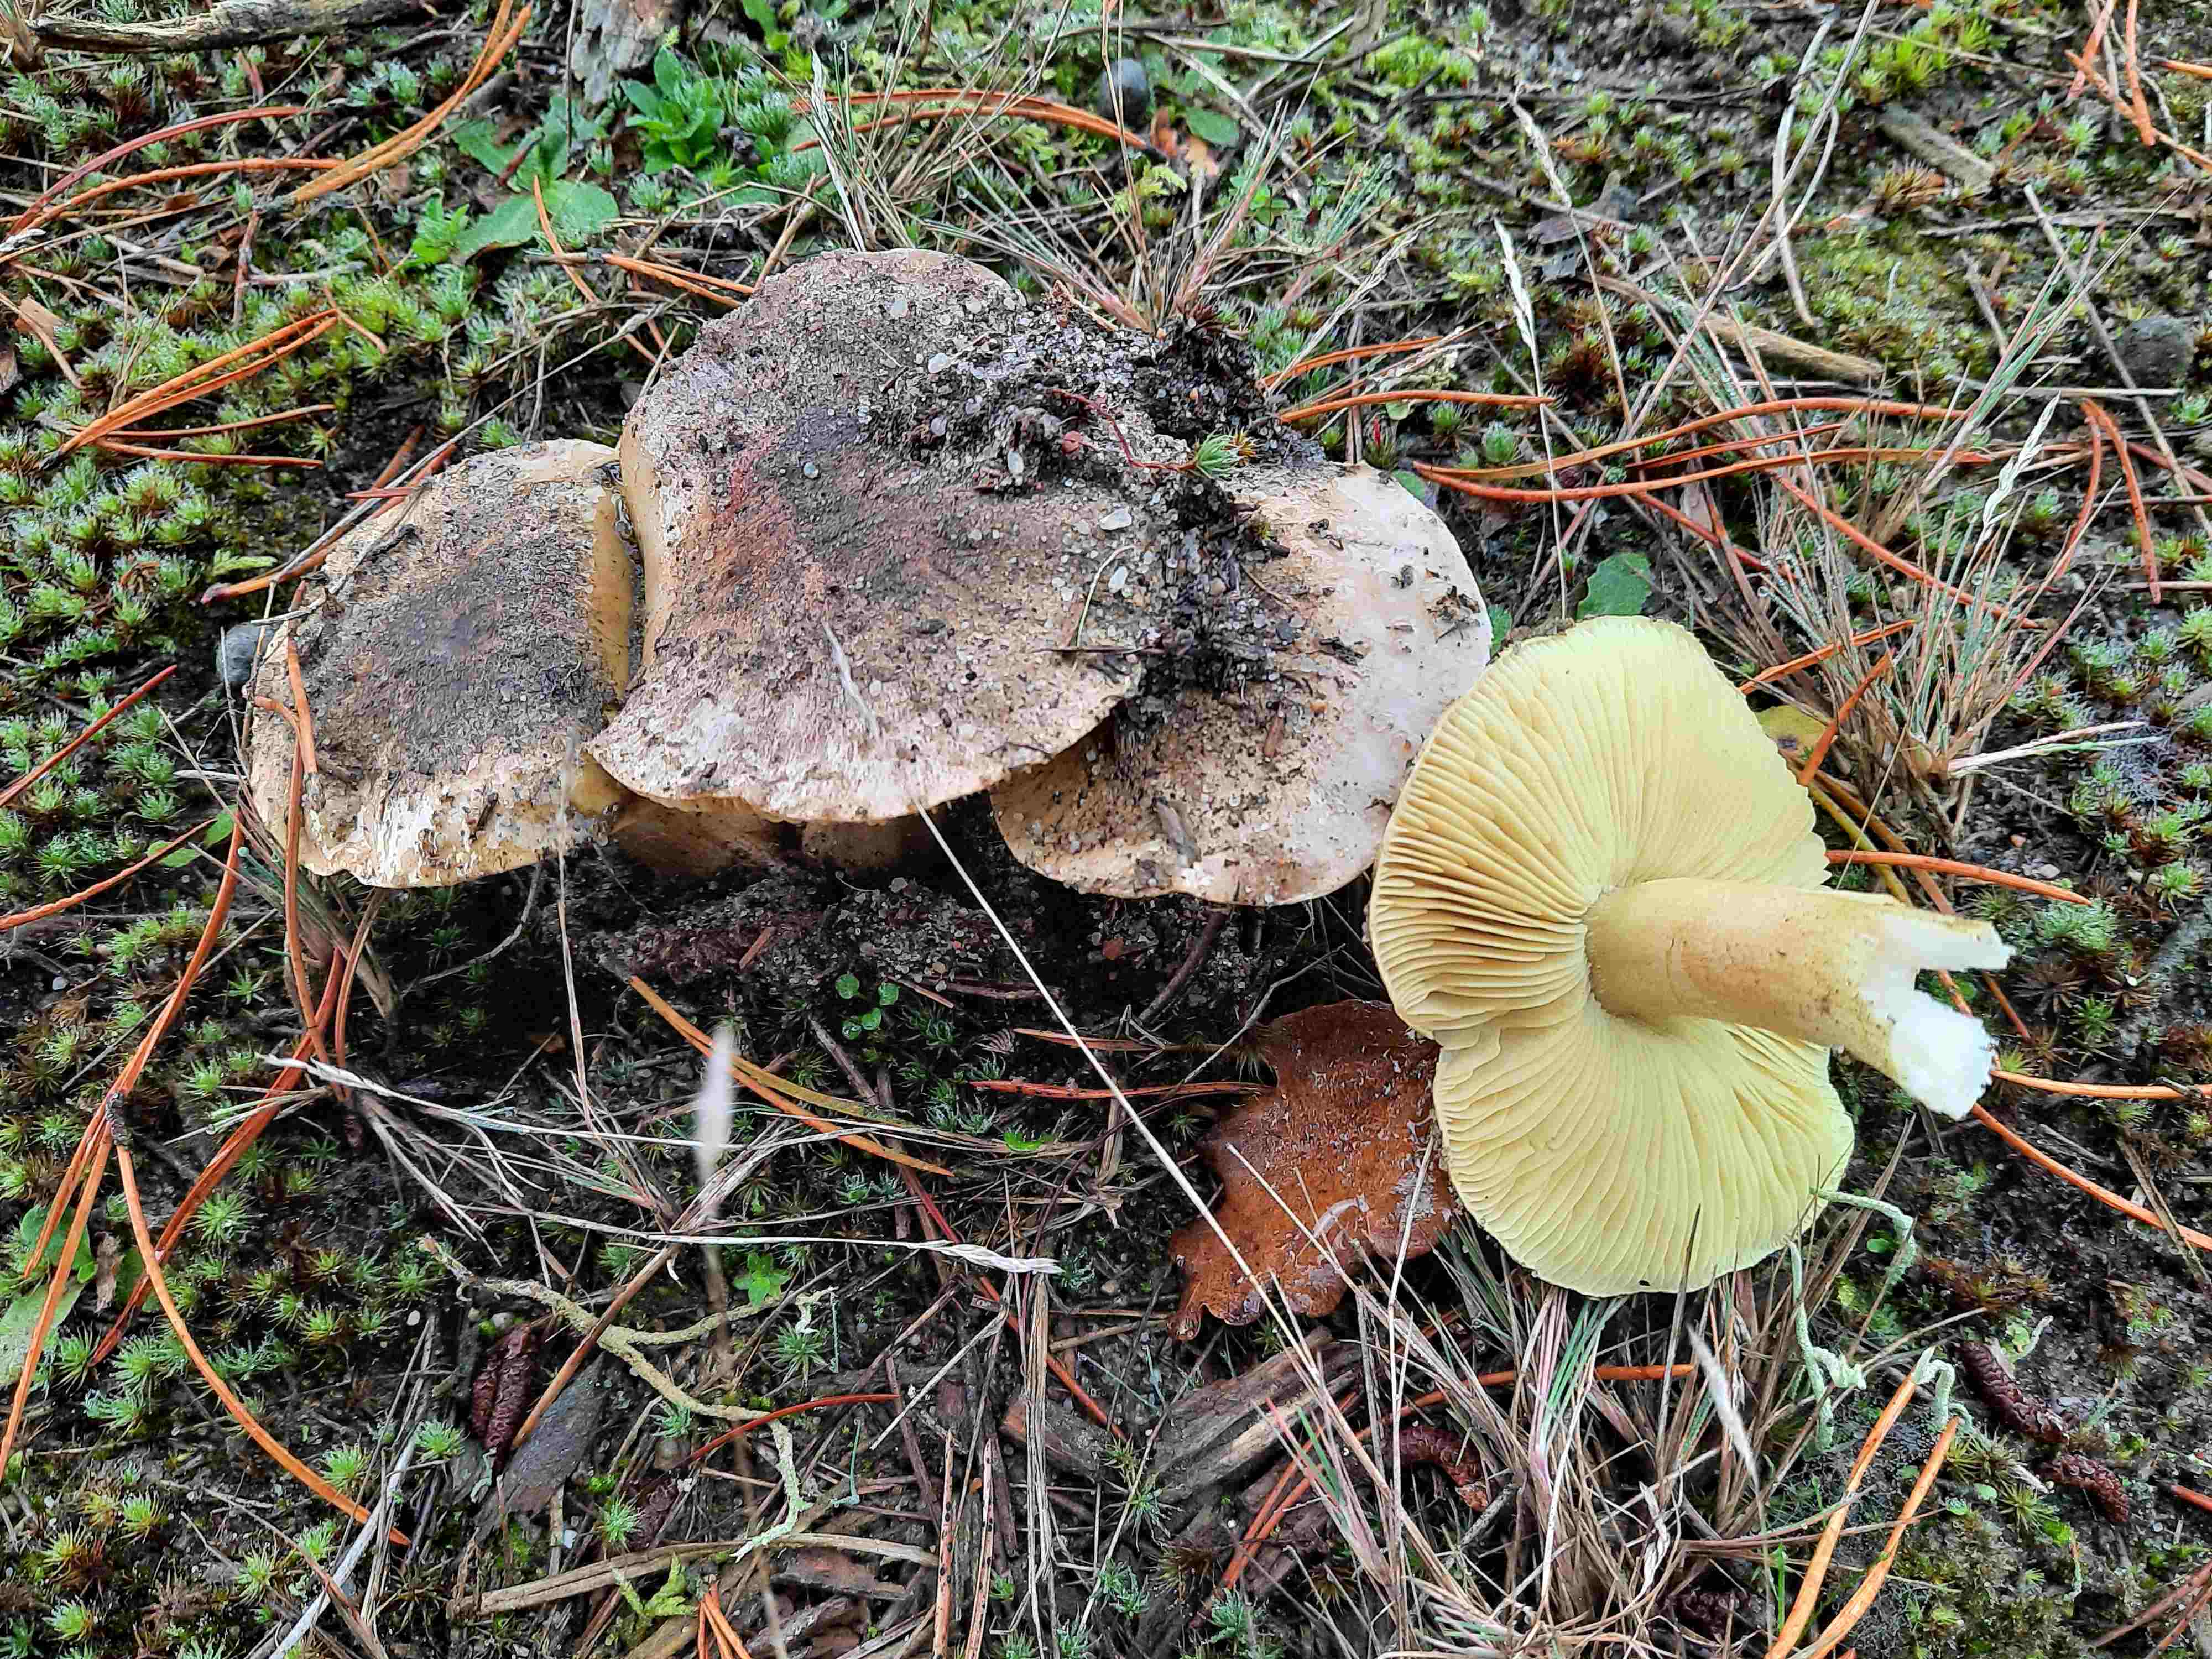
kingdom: Fungi
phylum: Basidiomycota
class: Agaricomycetes
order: Agaricales
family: Tricholomataceae
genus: Tricholoma
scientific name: Tricholoma equestre
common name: ægte ridderhat
